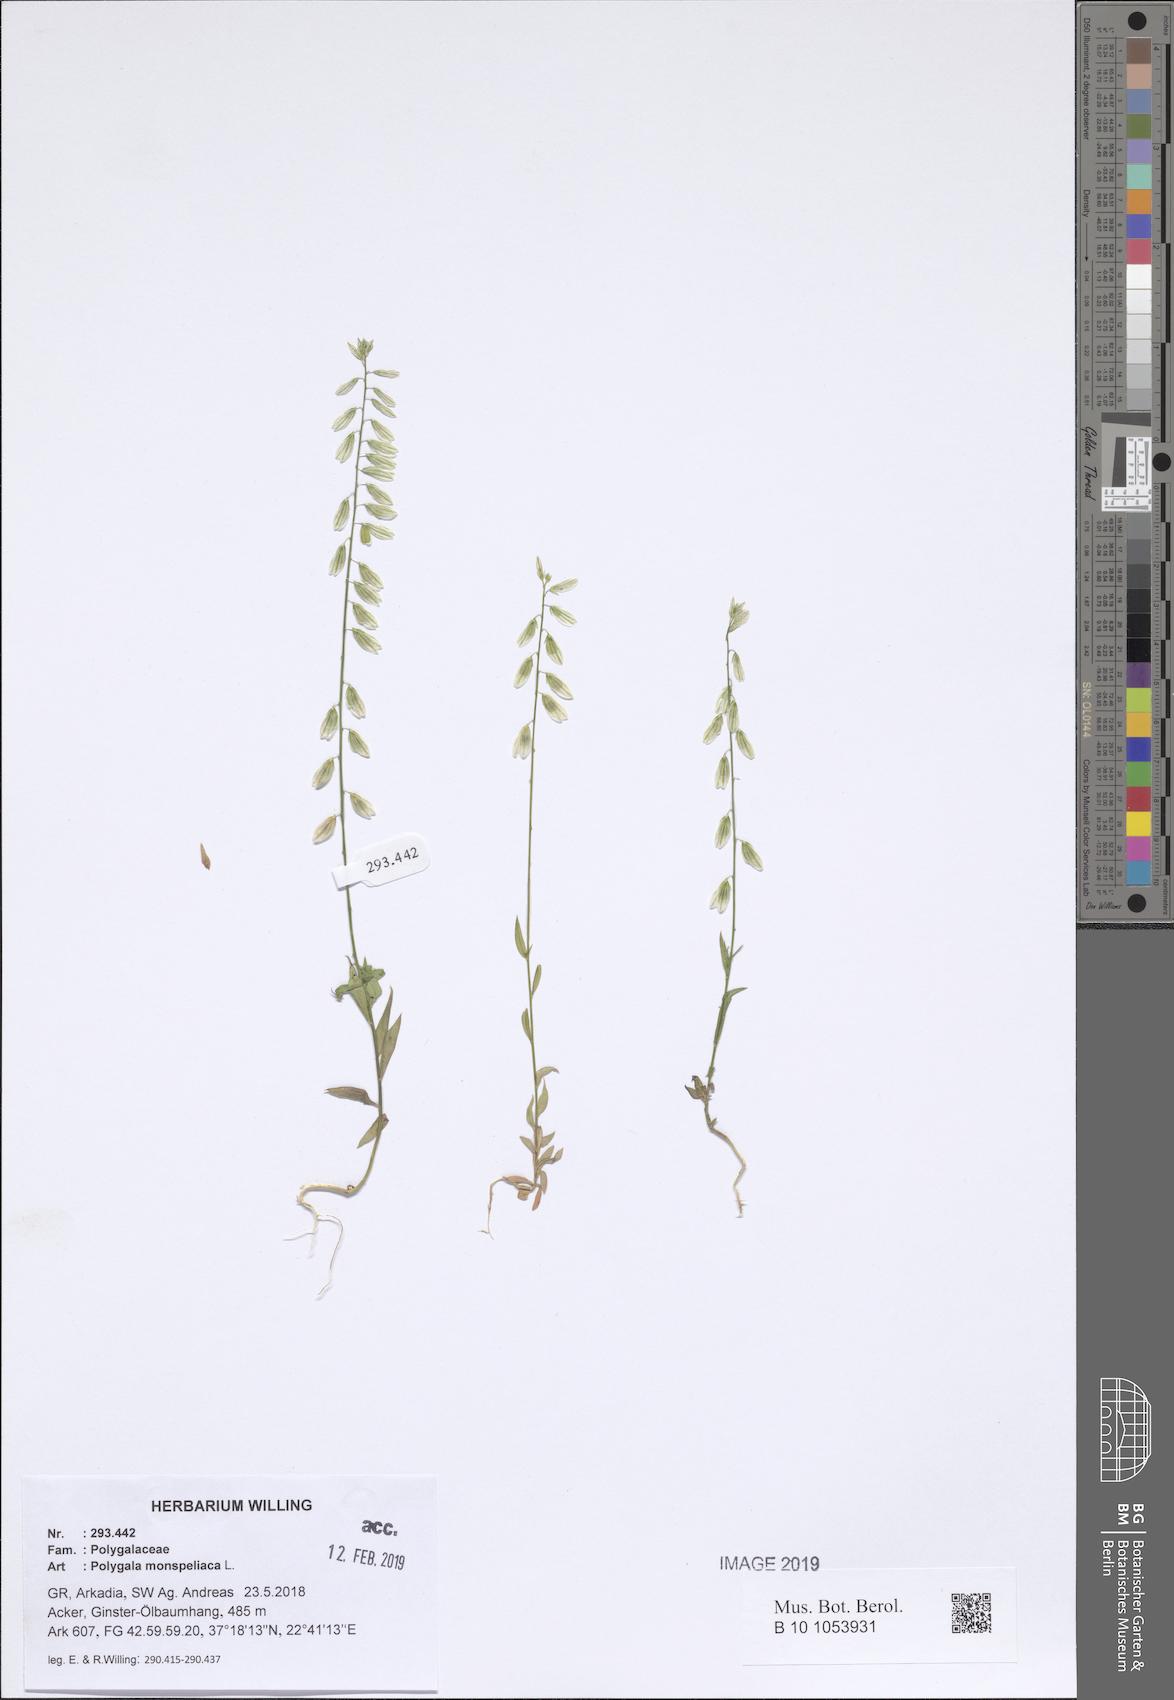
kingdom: Plantae
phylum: Tracheophyta
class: Magnoliopsida
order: Fabales
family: Polygalaceae
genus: Polygala
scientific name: Polygala monspeliaca
